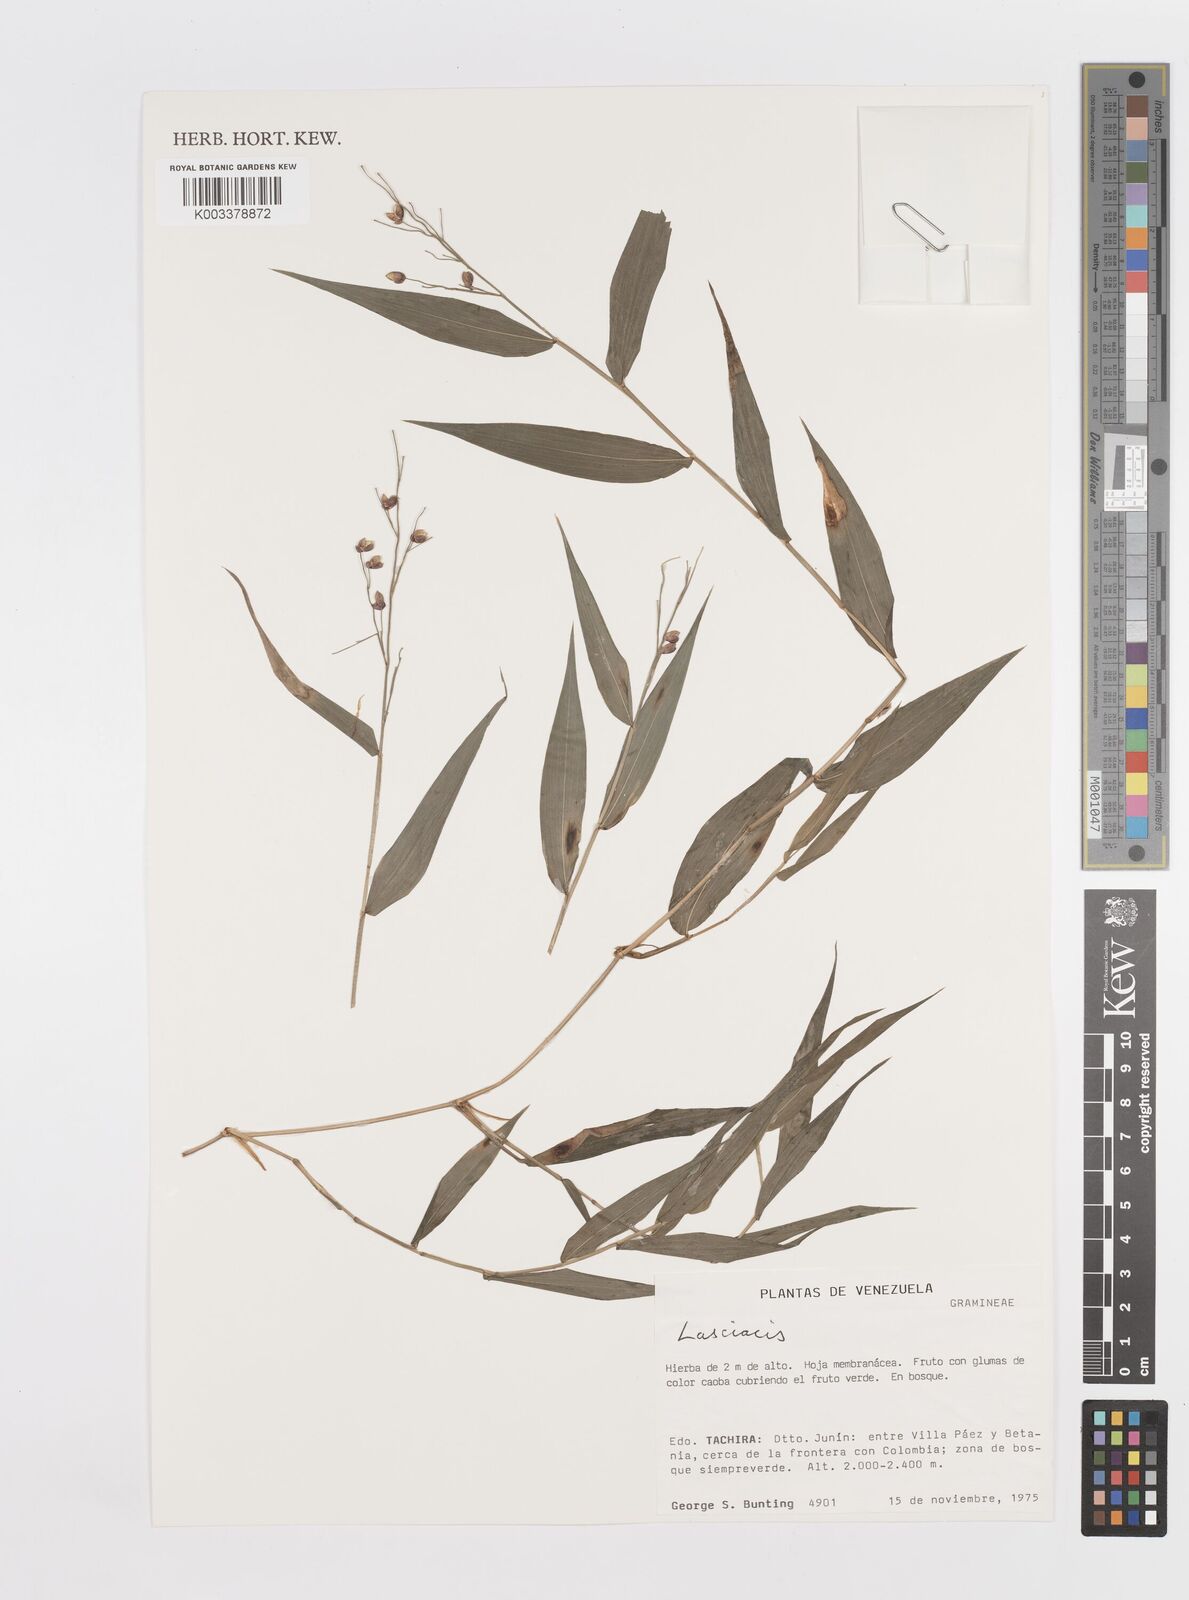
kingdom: Plantae
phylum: Tracheophyta
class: Liliopsida
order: Poales
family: Poaceae
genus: Lasiacis
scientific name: Lasiacis
